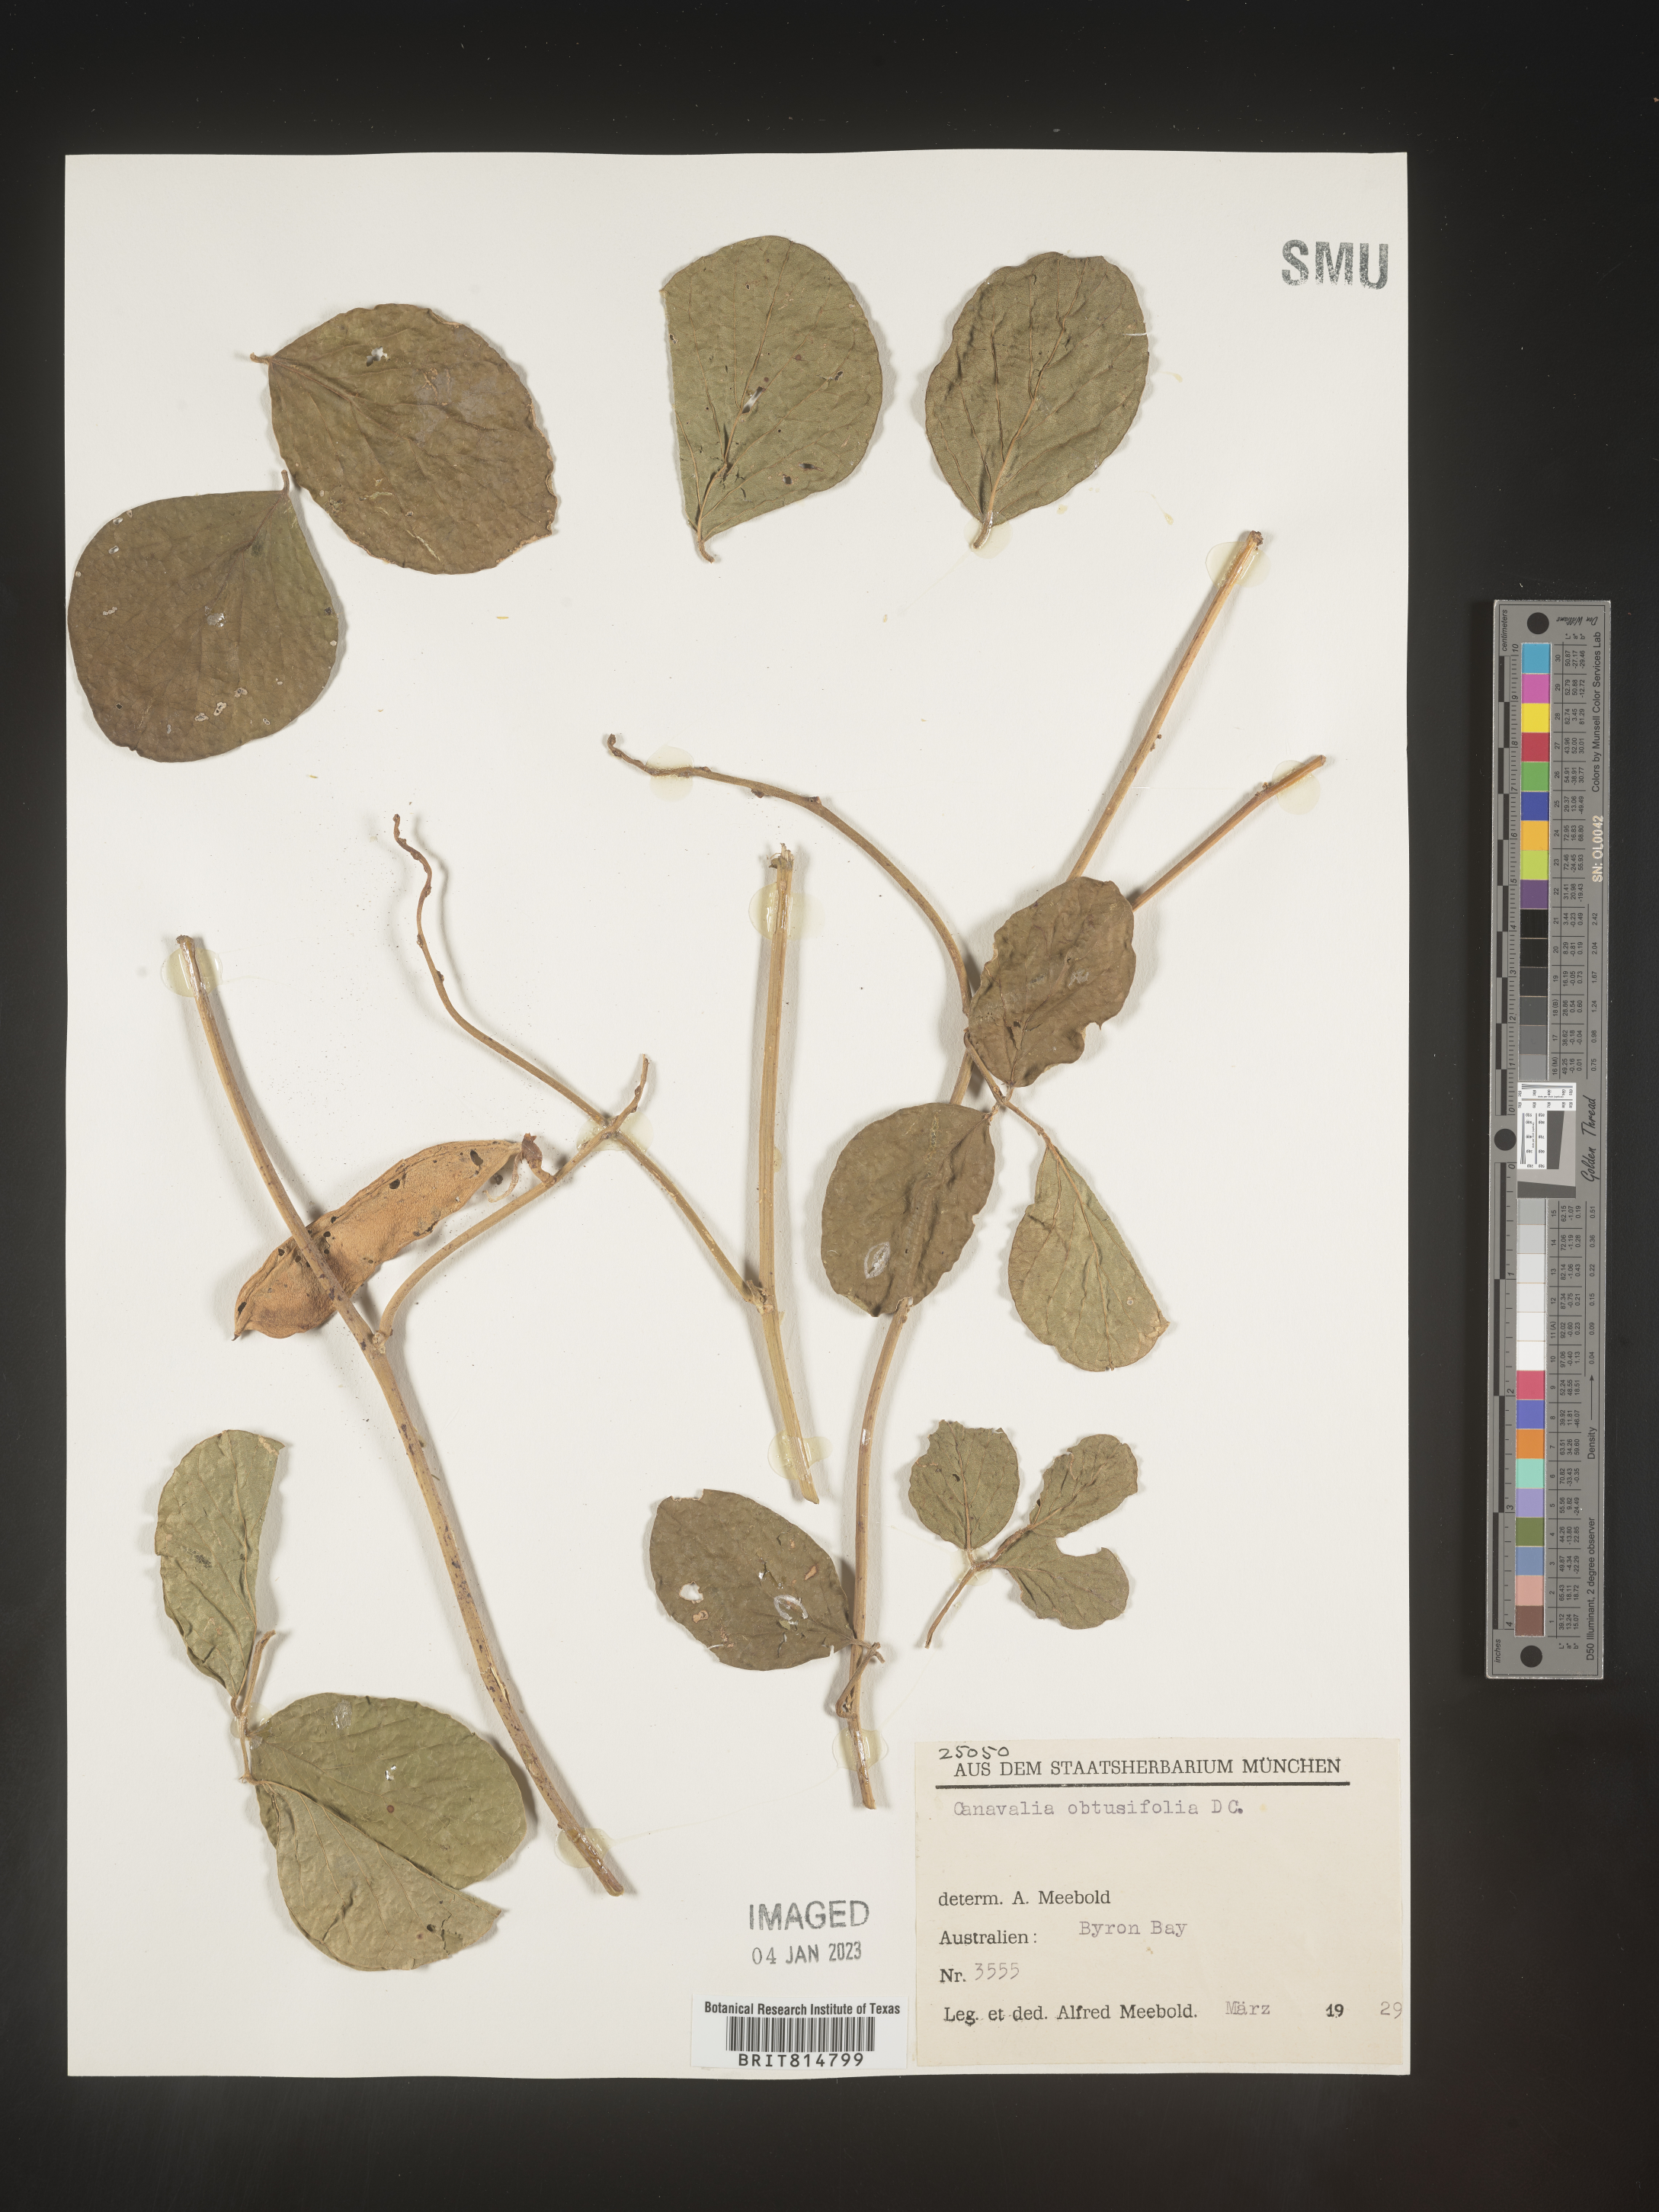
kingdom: Plantae
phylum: Tracheophyta
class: Magnoliopsida
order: Fabales
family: Fabaceae
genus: Canavalia
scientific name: Canavalia
